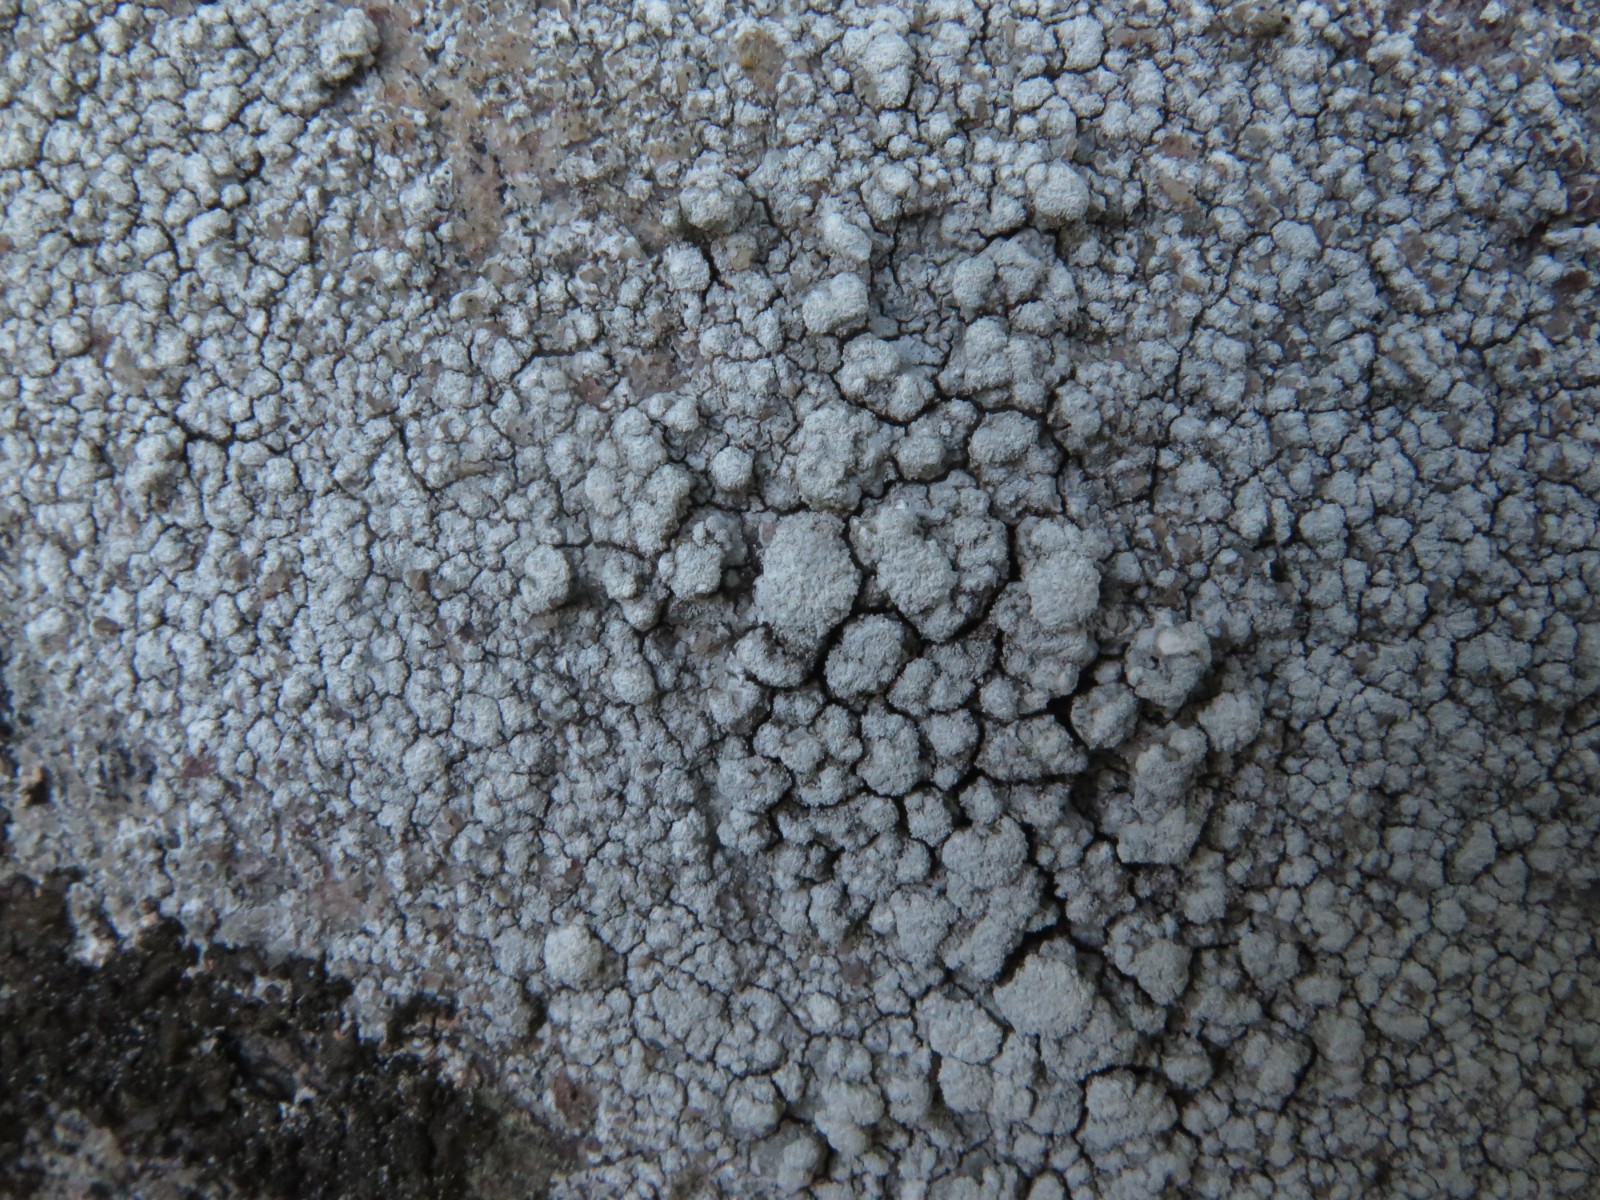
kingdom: Fungi
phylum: Ascomycota
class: Lecanoromycetes
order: Pertusariales
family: Pertusariaceae
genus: Lepra
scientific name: Lepra amara
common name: bitter prikvortelav
